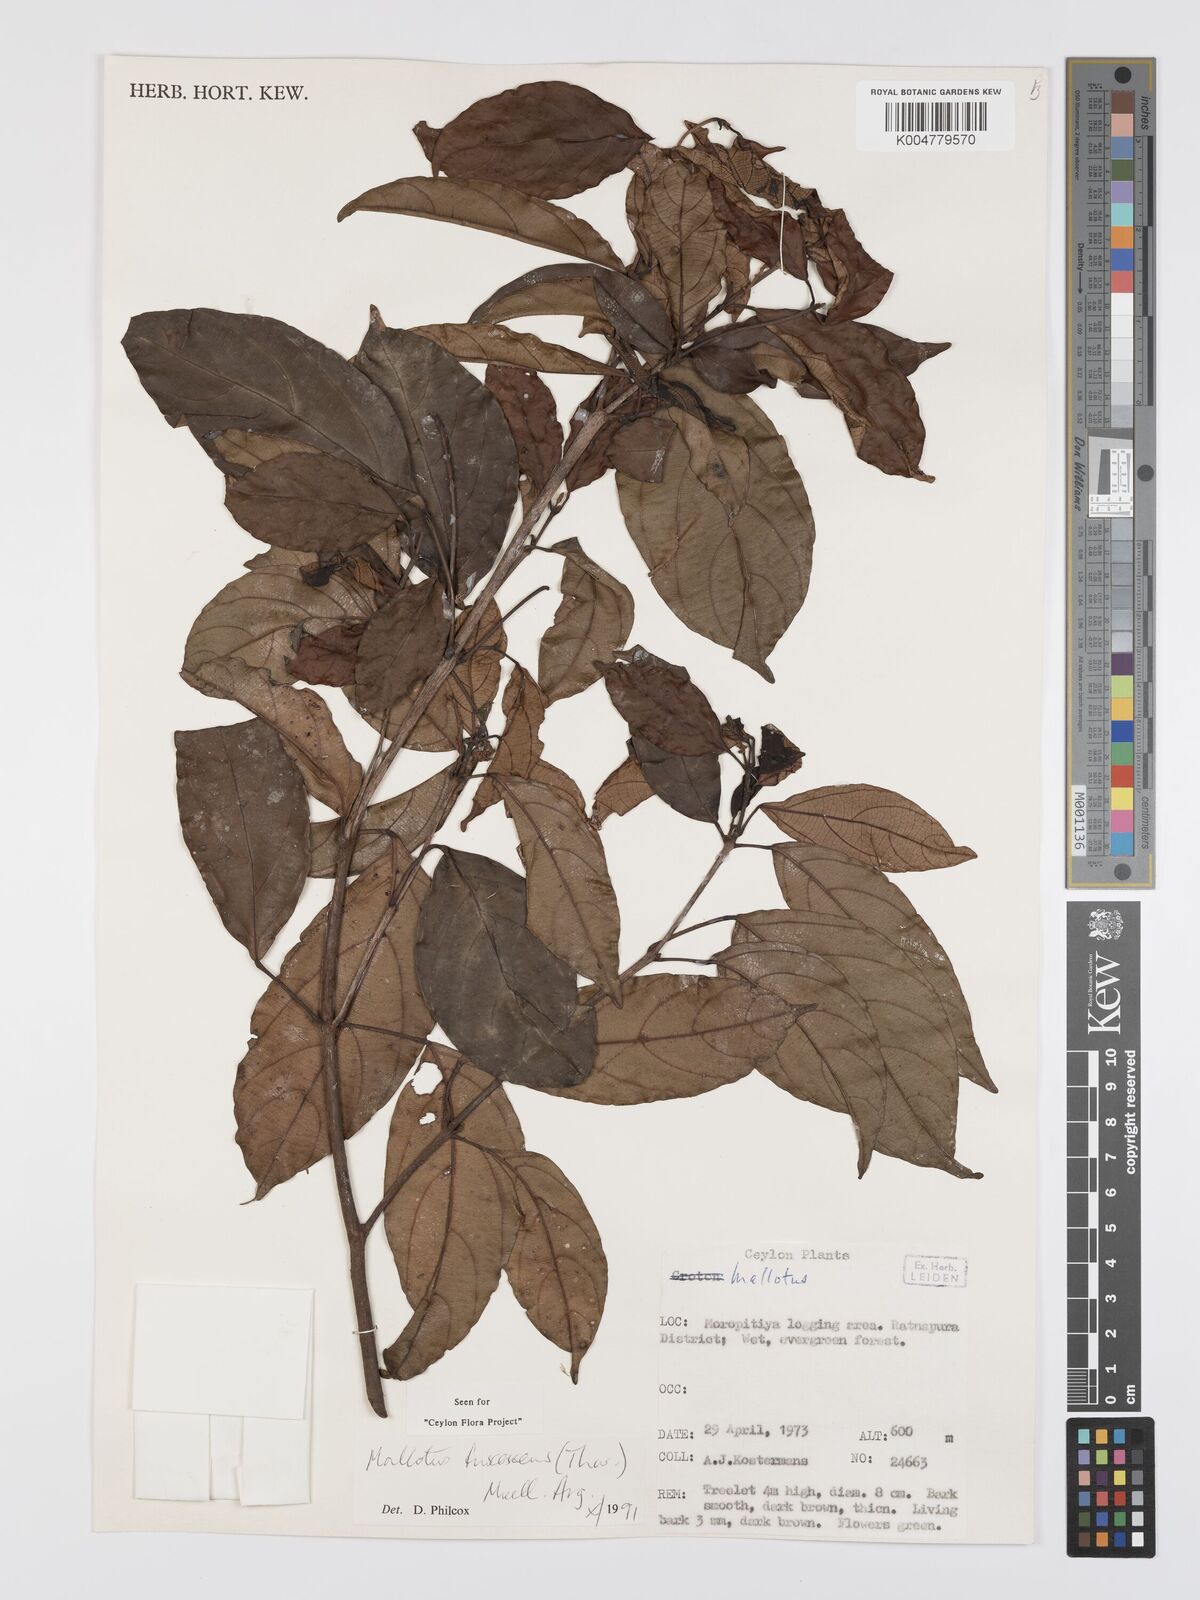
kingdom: Plantae
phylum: Tracheophyta
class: Magnoliopsida
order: Malpighiales
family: Euphorbiaceae
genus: Mallotus
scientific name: Mallotus fuscescens
